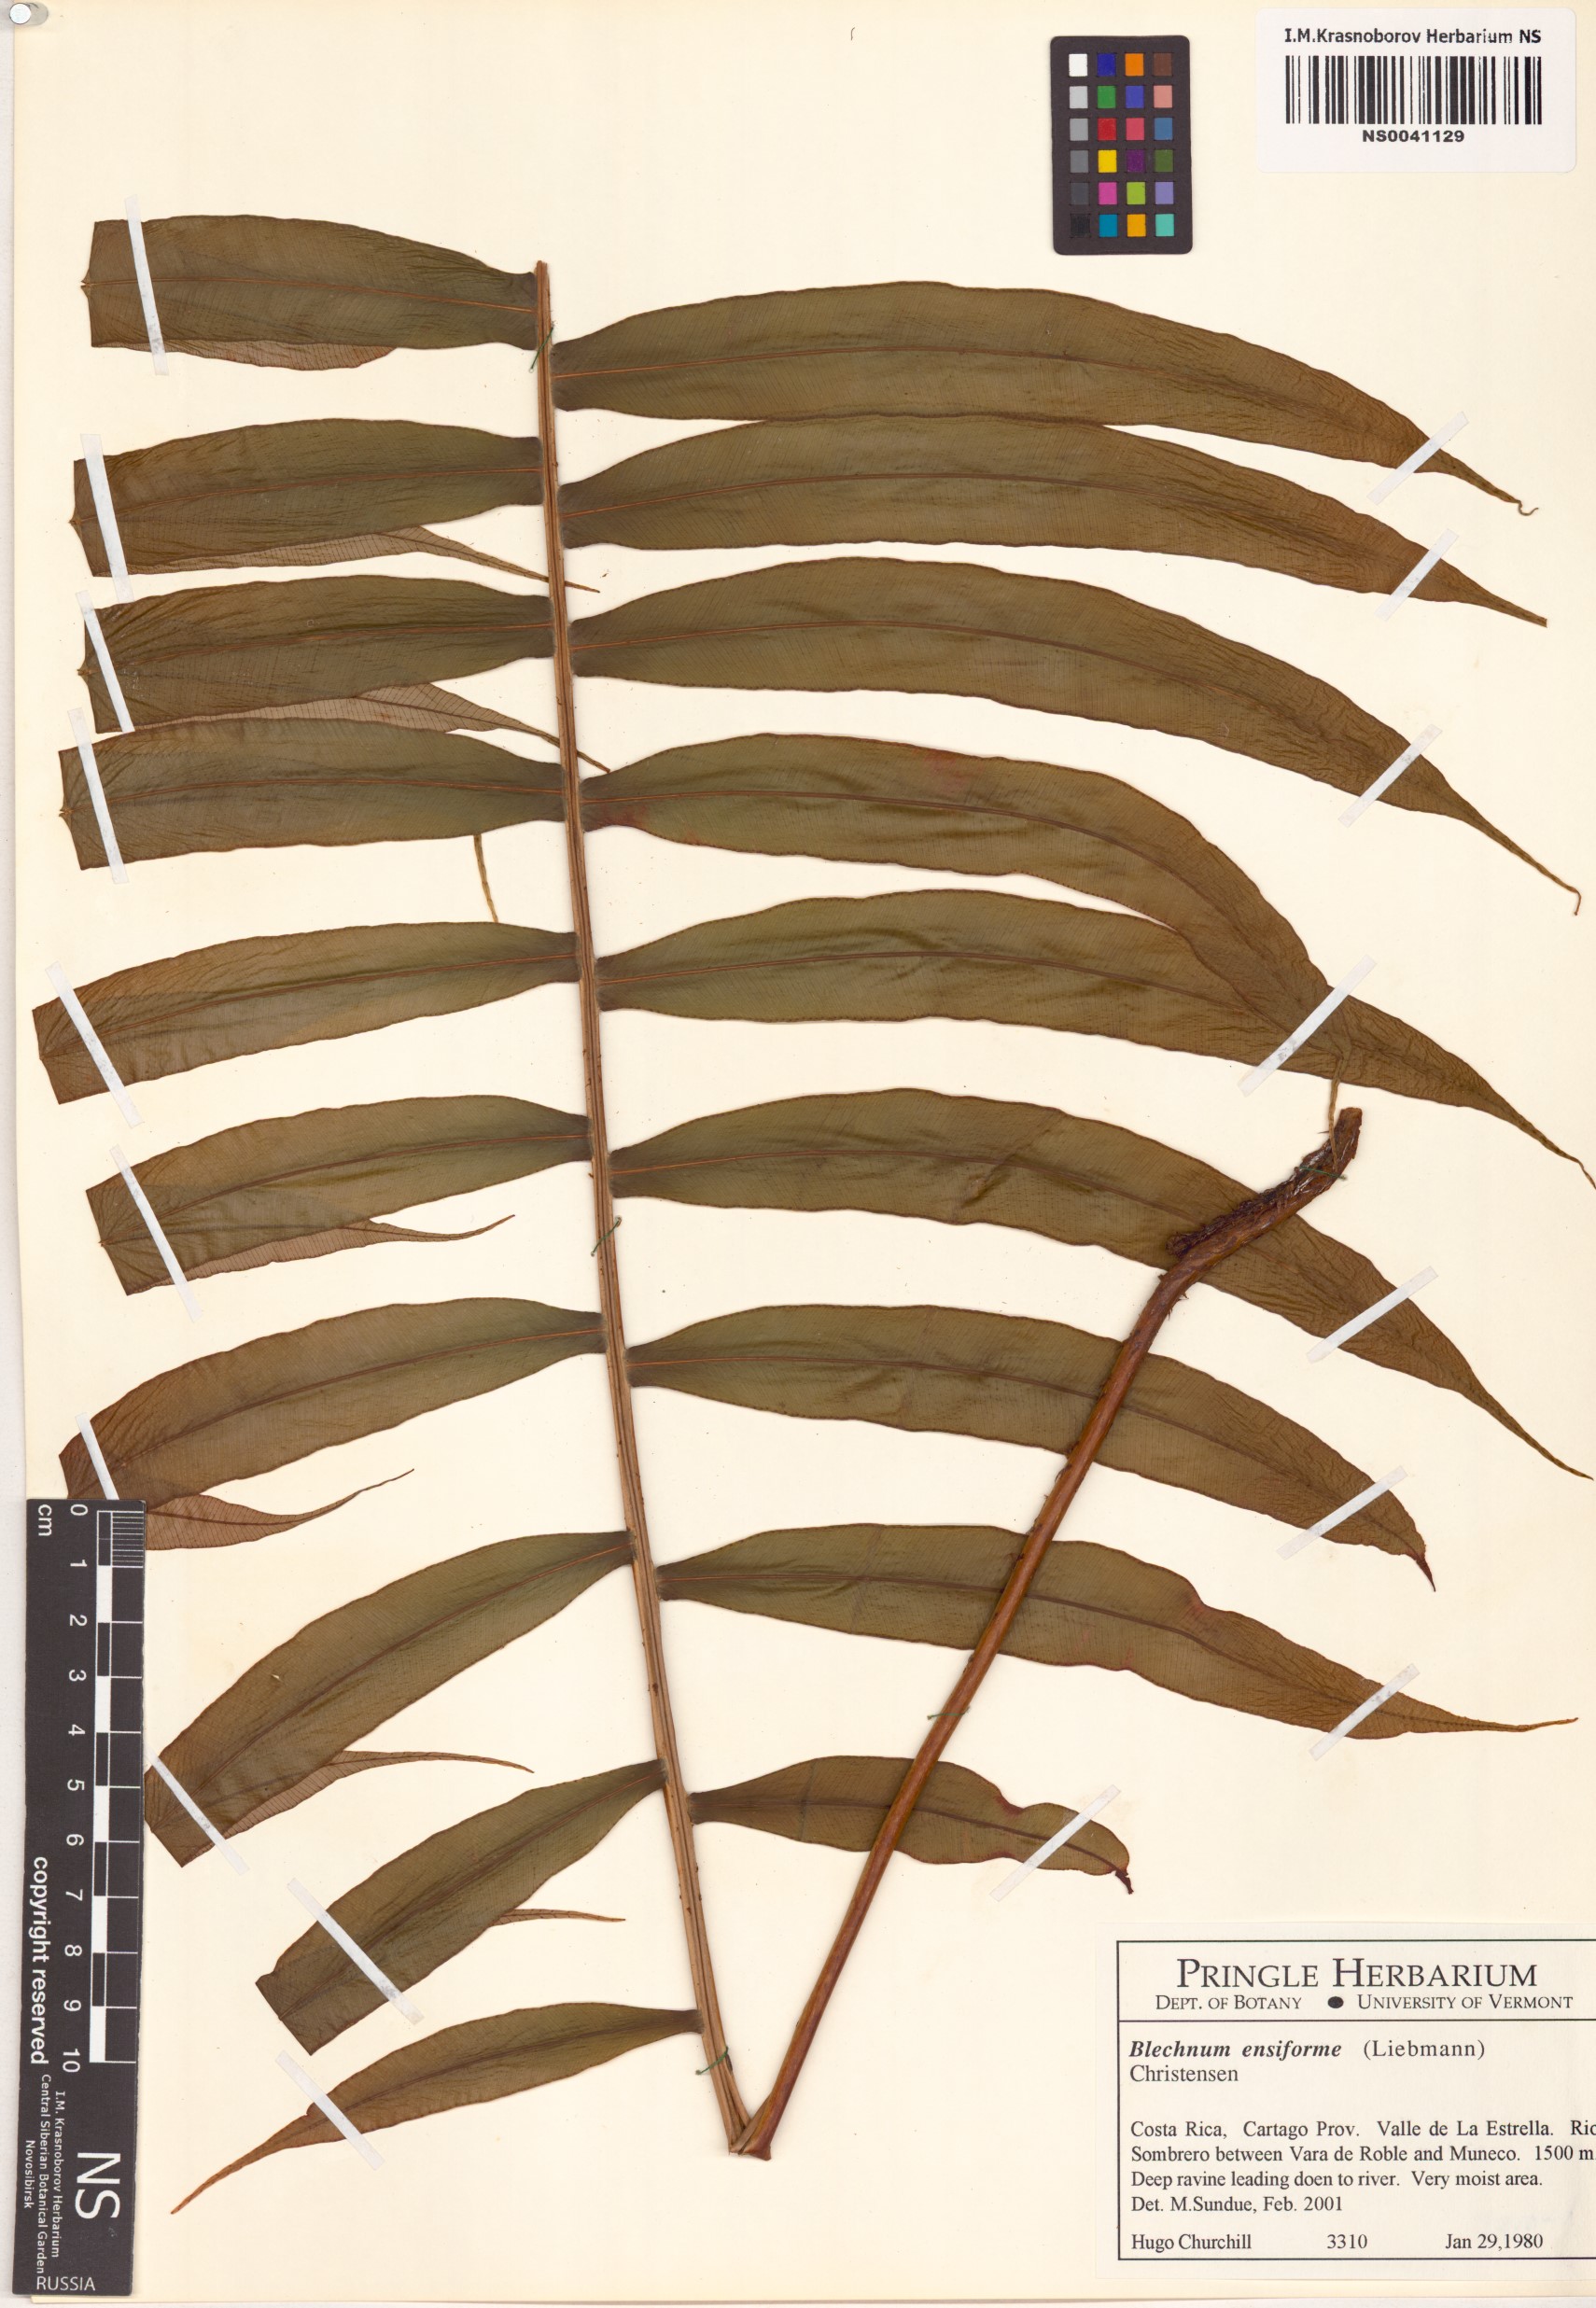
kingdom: Plantae
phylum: Tracheophyta
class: Polypodiopsida
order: Polypodiales
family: Blechnaceae
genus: Lomaridium
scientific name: Lomaridium ensiforme
